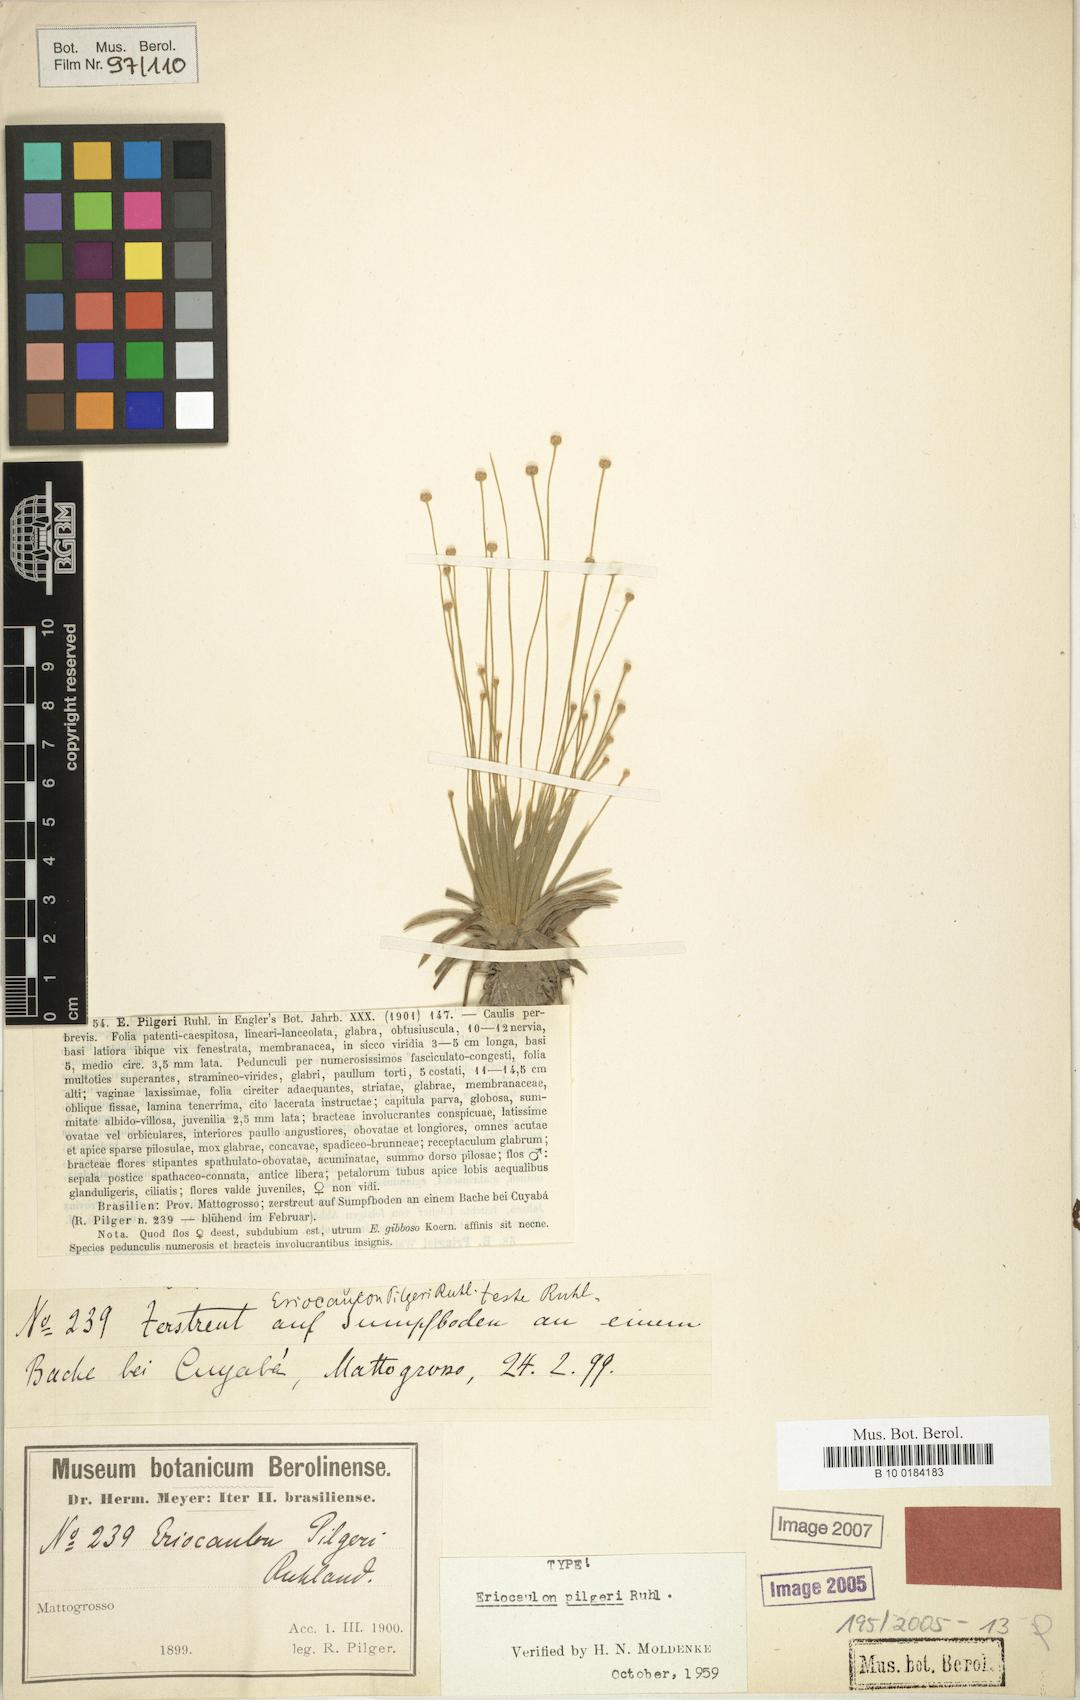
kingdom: Plantae
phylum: Tracheophyta
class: Liliopsida
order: Poales
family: Eriocaulaceae
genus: Eriocaulon
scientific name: Eriocaulon pilgeri
